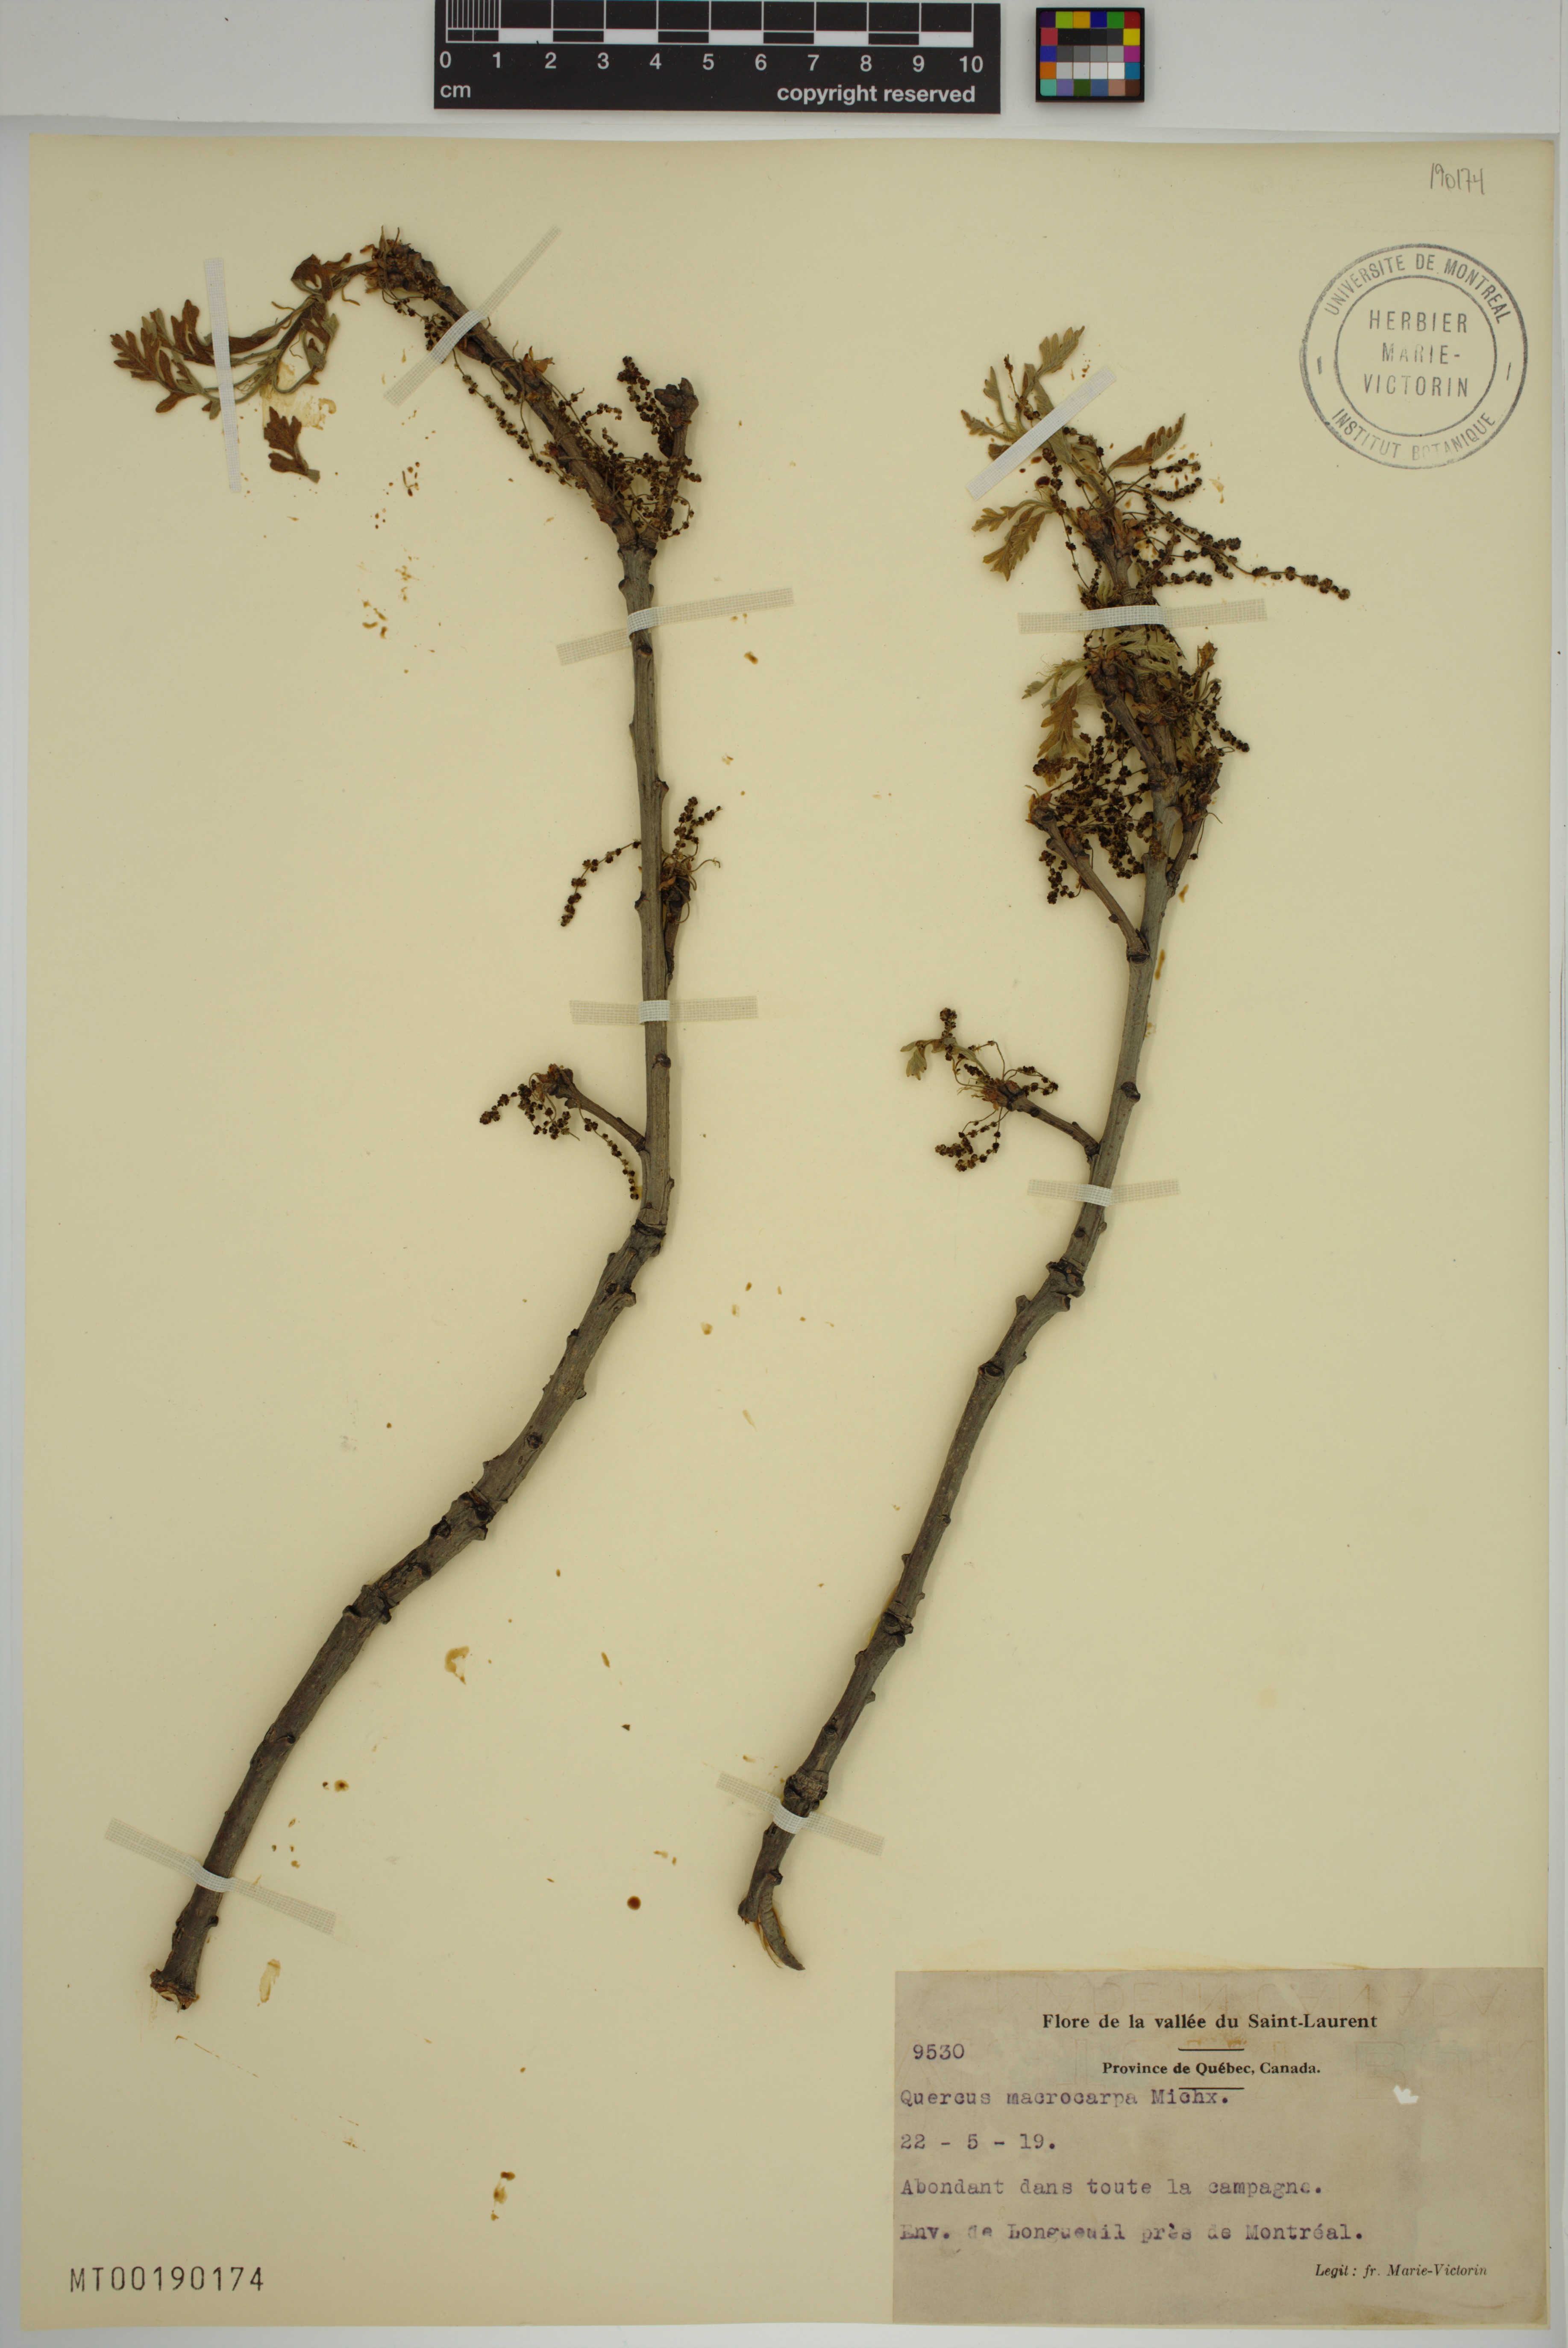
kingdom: Plantae
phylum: Tracheophyta
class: Magnoliopsida
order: Fagales
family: Fagaceae
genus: Quercus
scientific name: Quercus macrocarpa
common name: Bur oak
